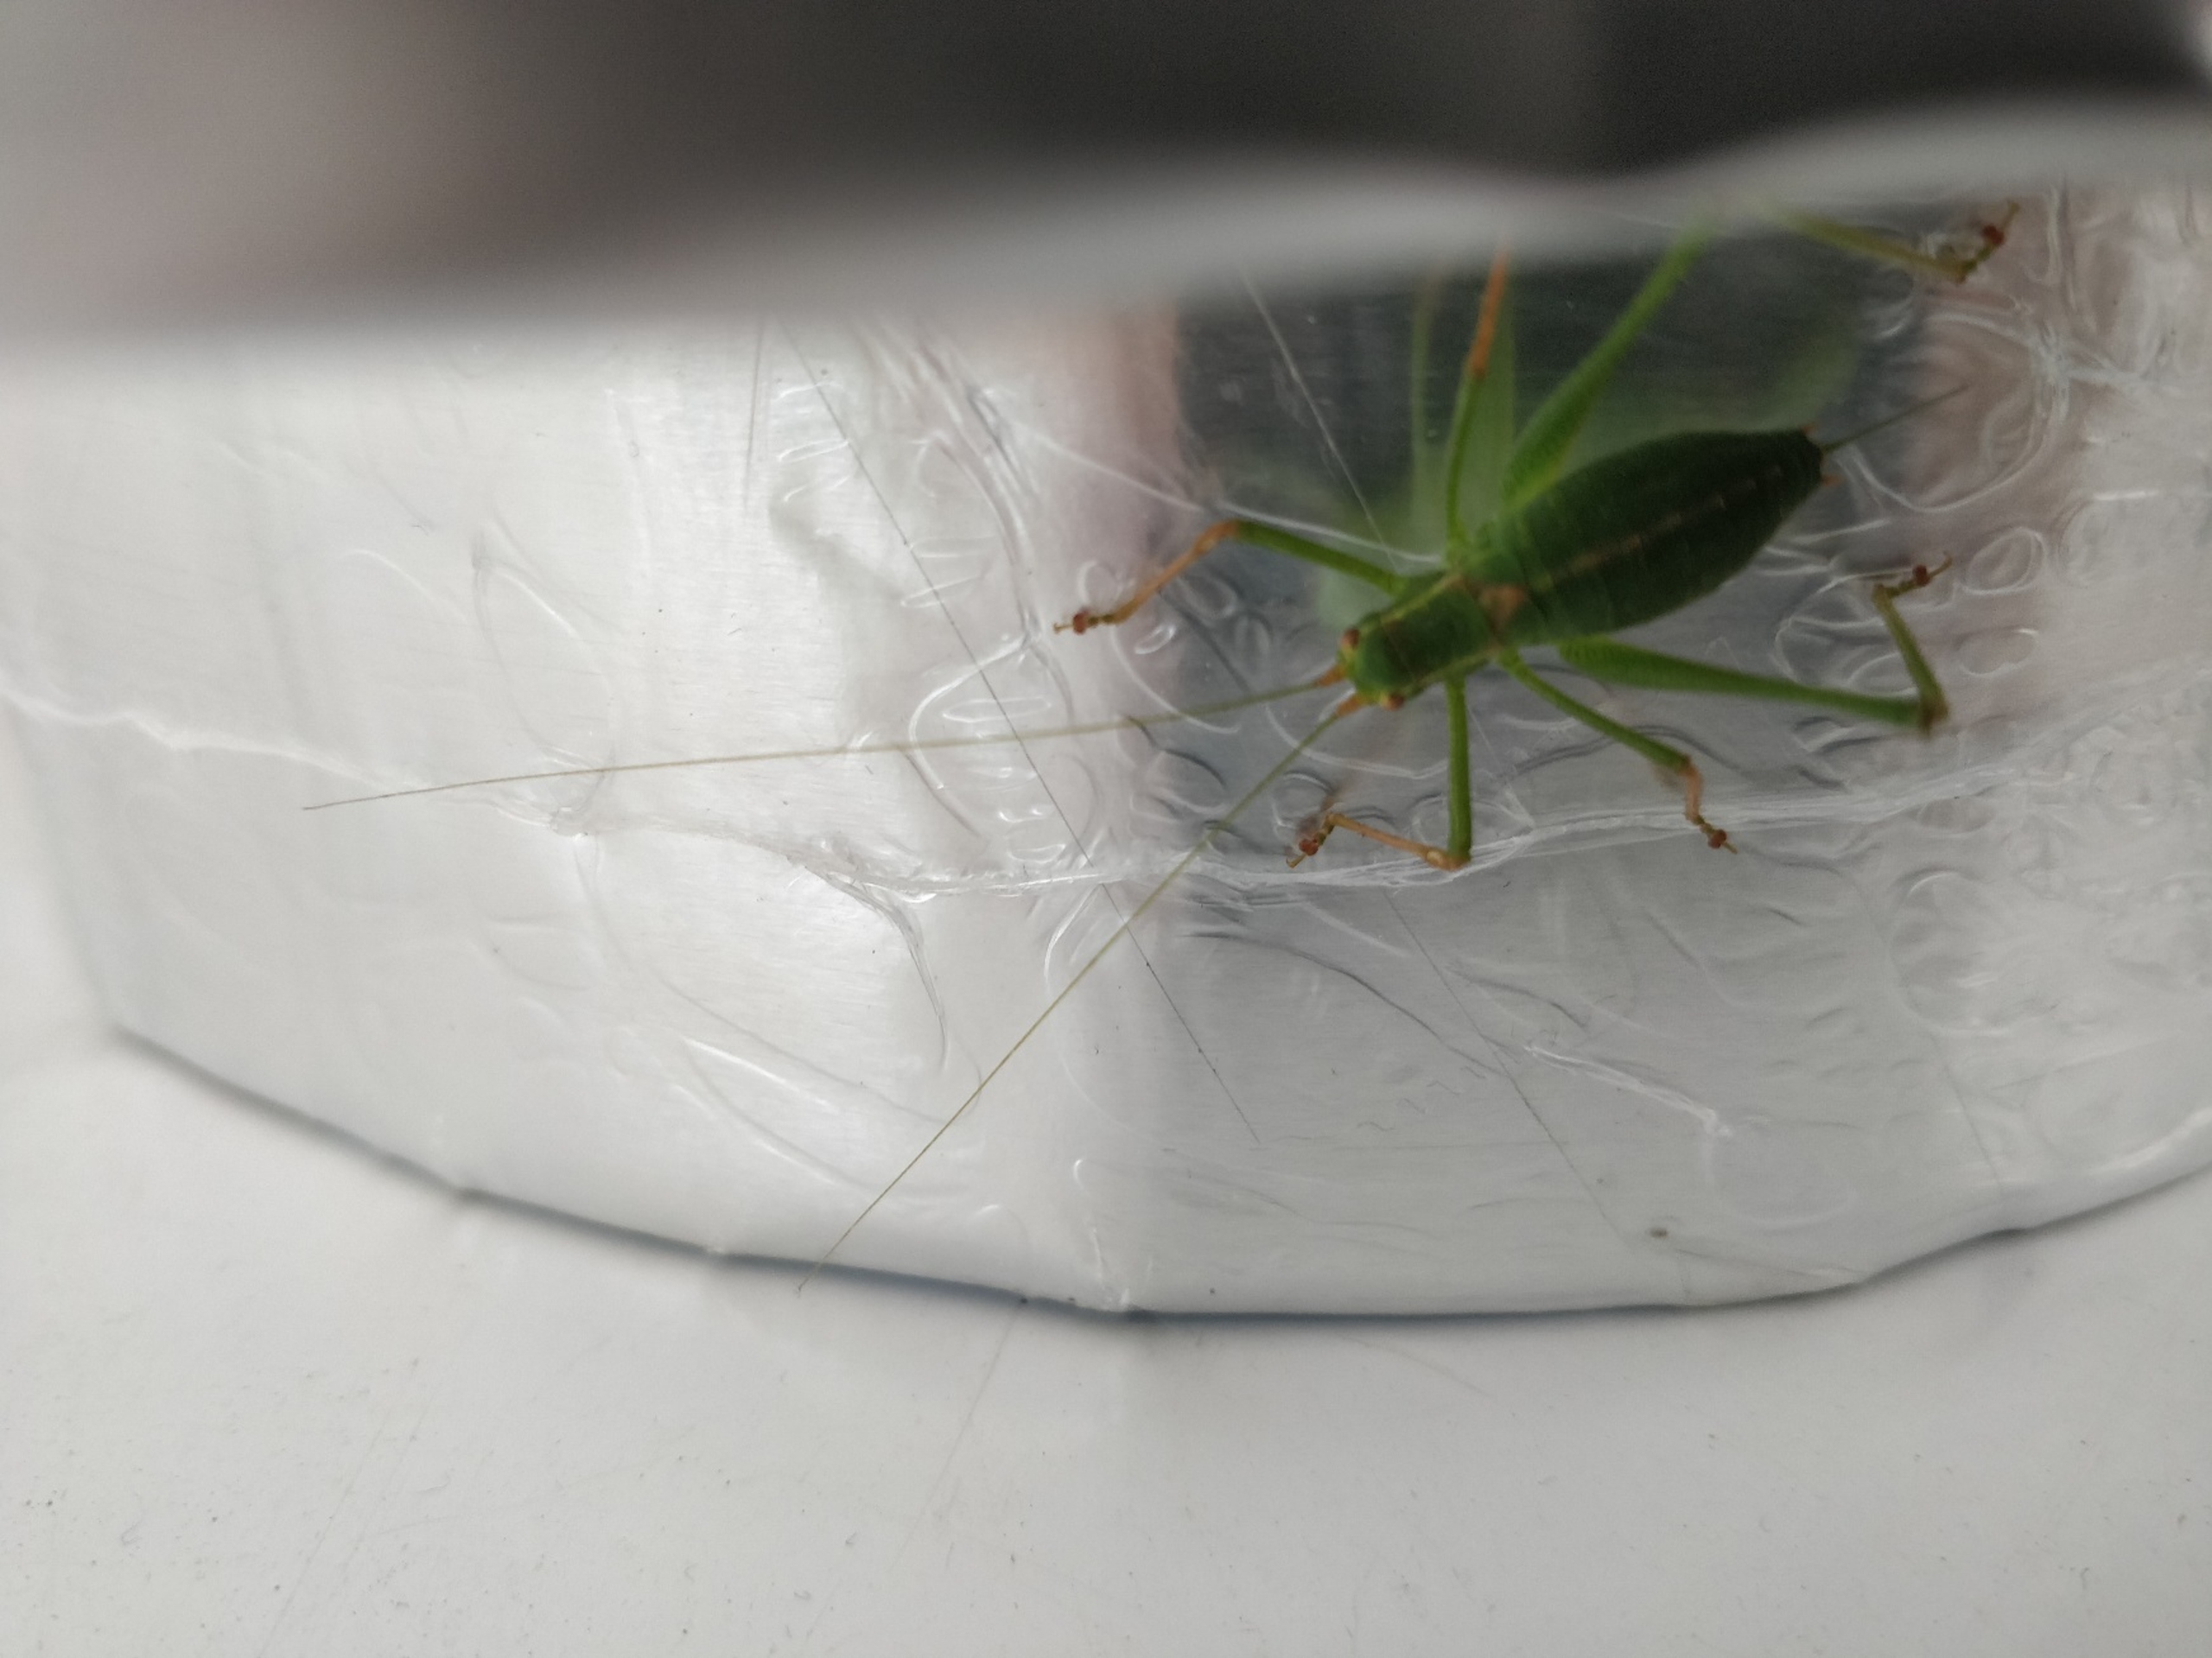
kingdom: Animalia
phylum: Arthropoda
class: Insecta
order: Orthoptera
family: Tettigoniidae
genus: Leptophyes
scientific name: Leptophyes punctatissima
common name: Krumknivgræshoppe
